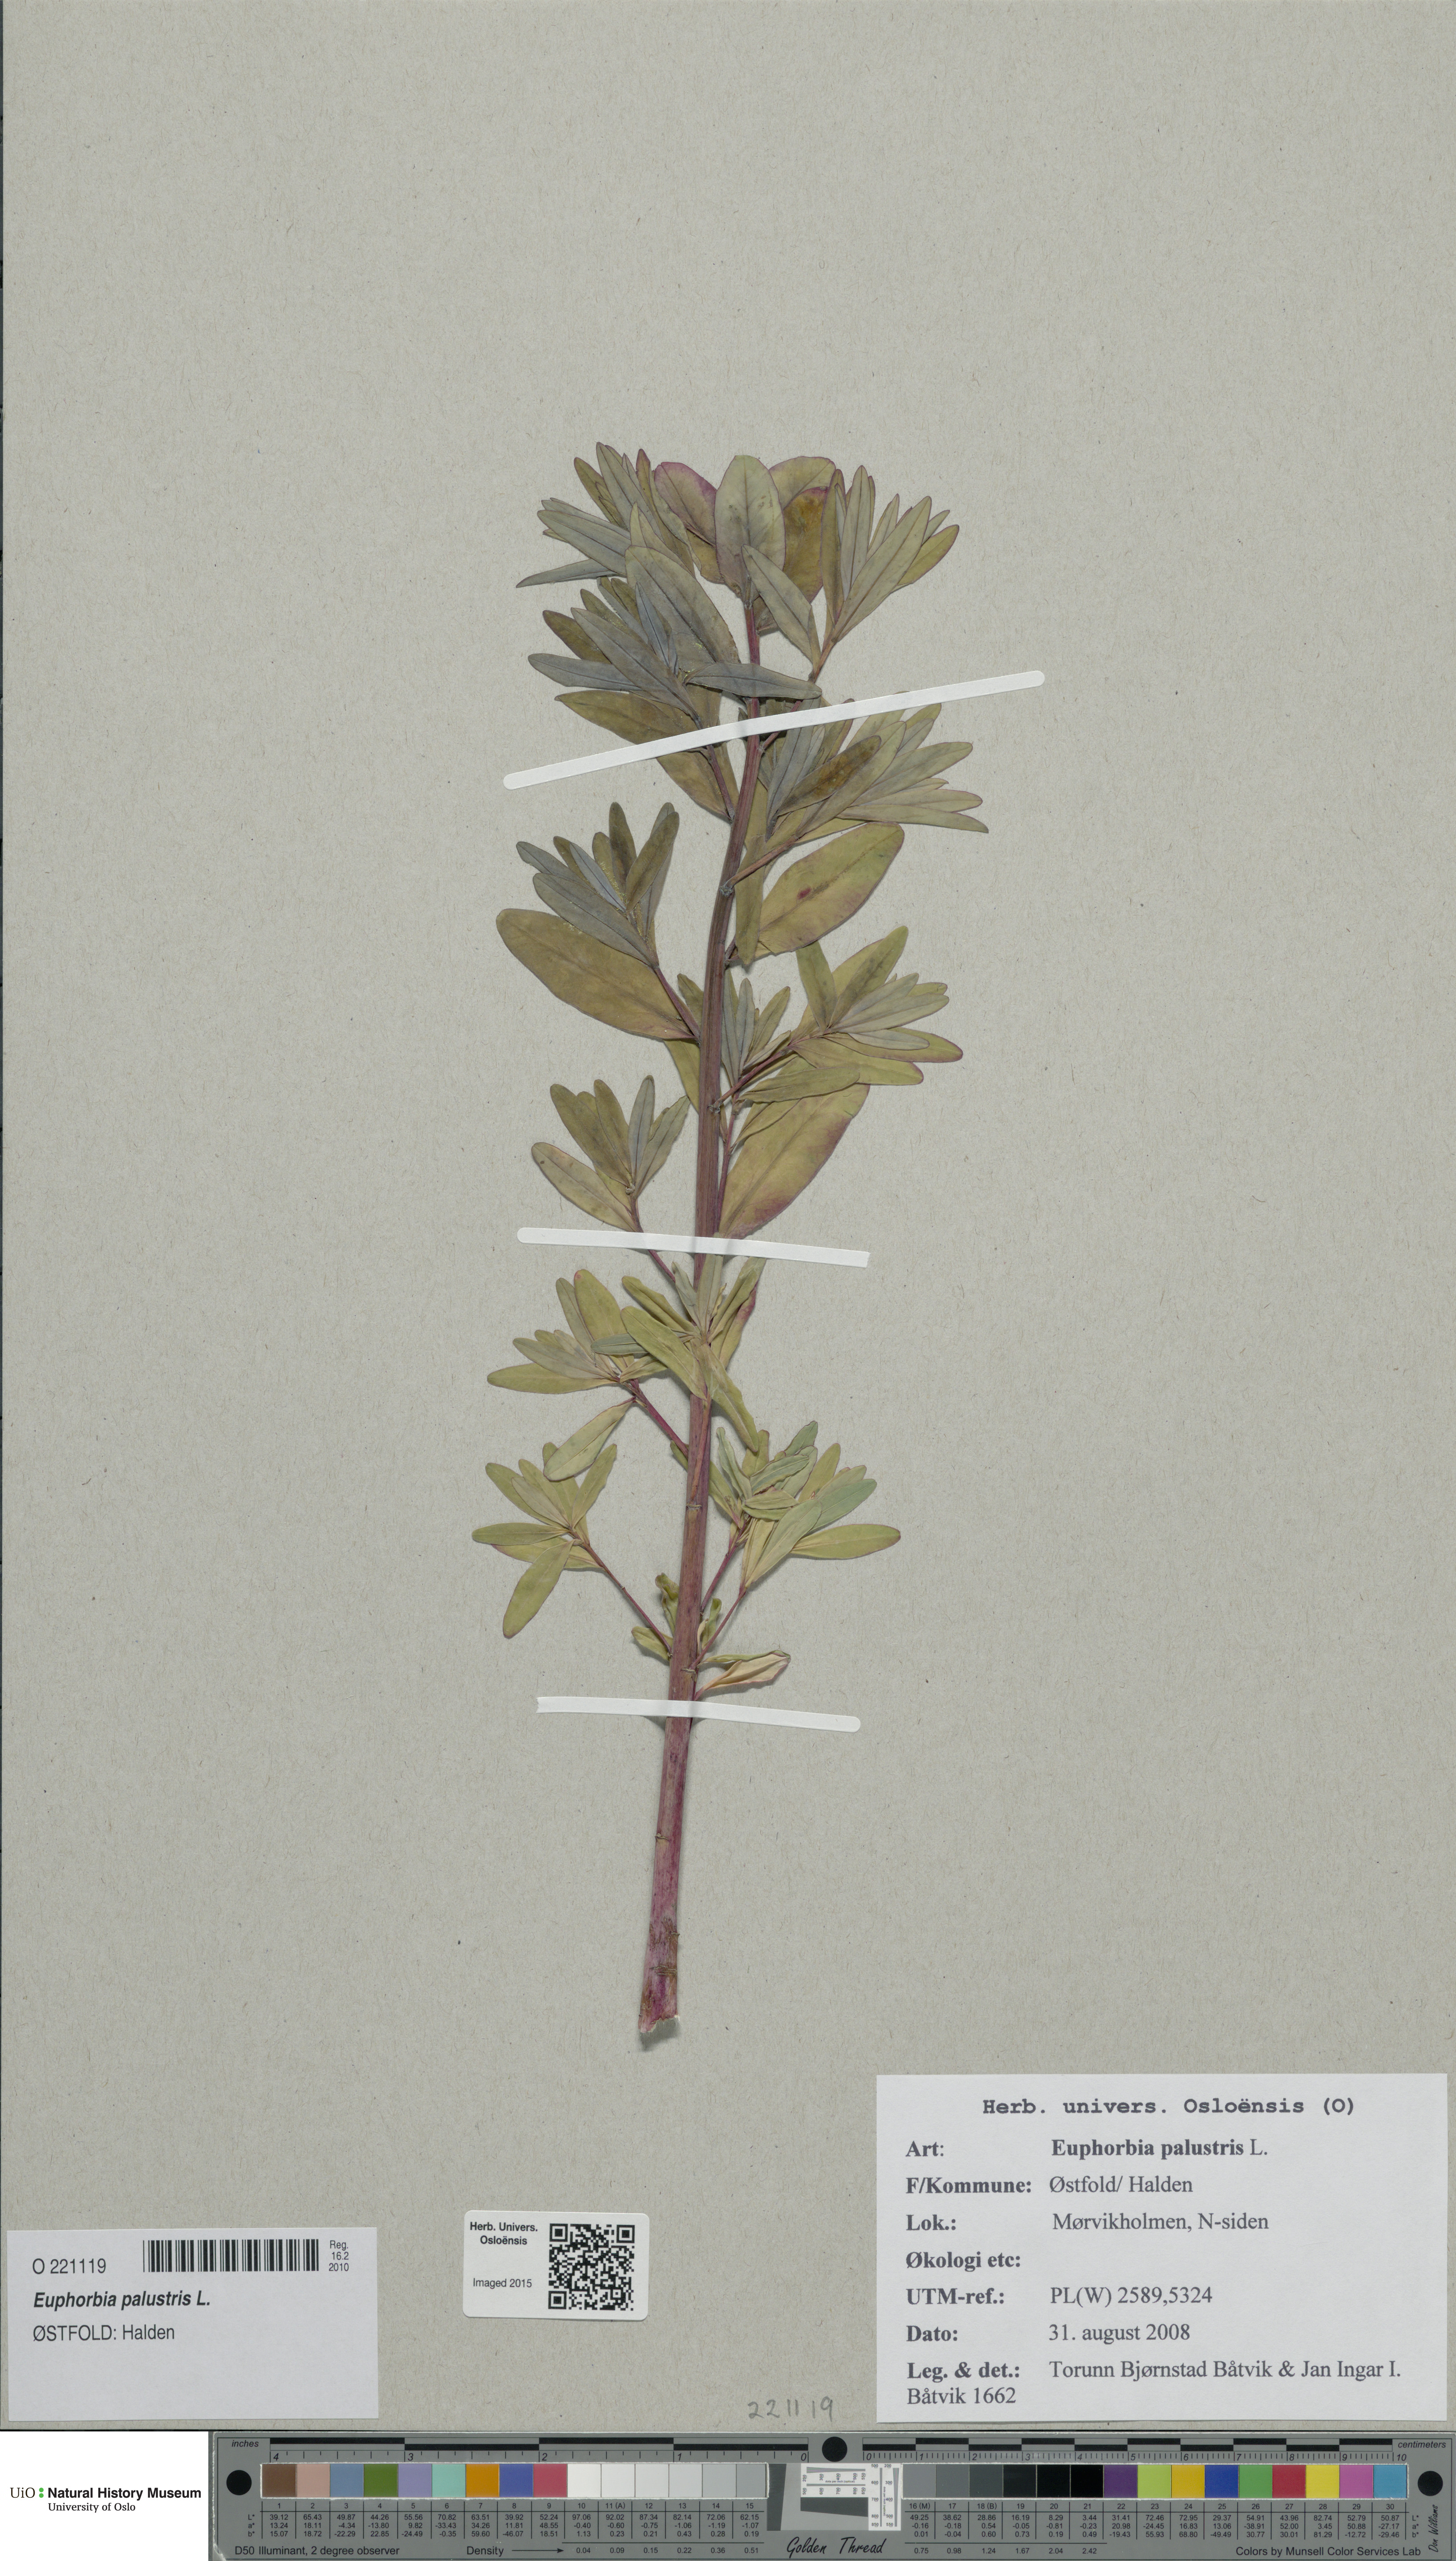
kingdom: Plantae
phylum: Tracheophyta
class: Magnoliopsida
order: Malpighiales
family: Euphorbiaceae
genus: Euphorbia
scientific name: Euphorbia palustris
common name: Marsh spurge
